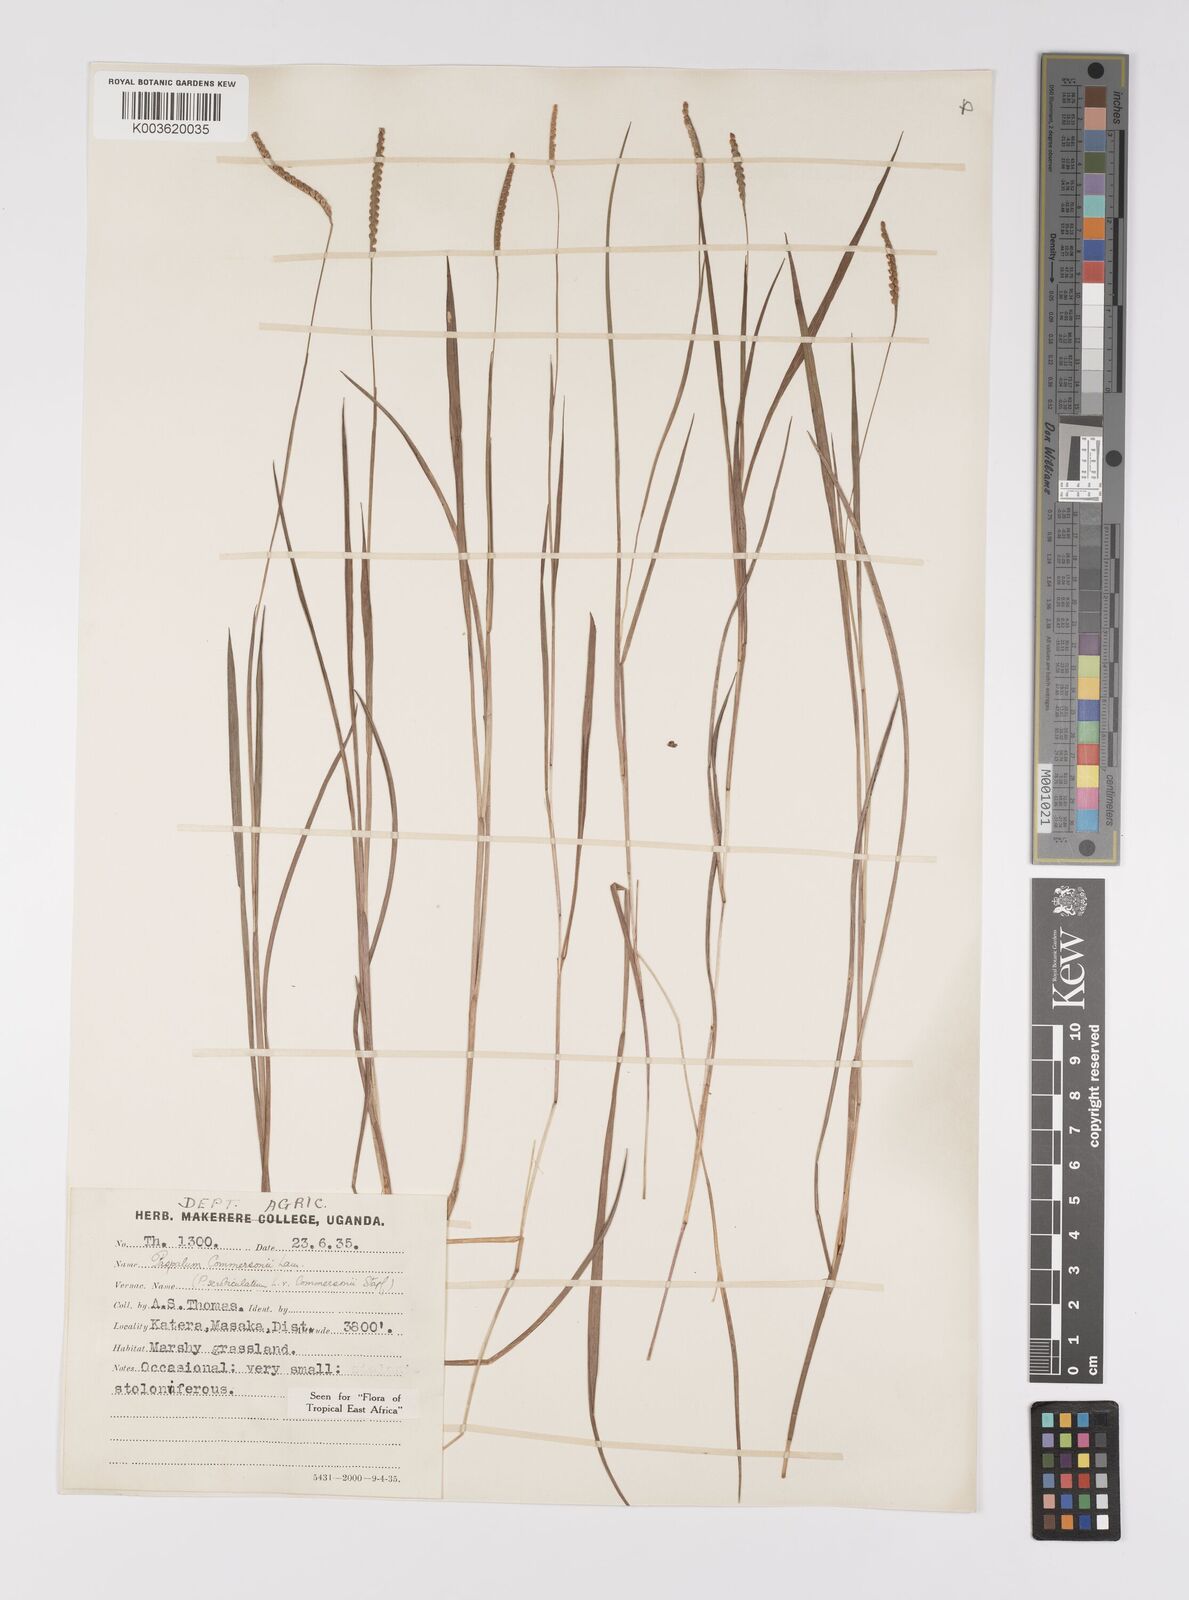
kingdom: Plantae
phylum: Tracheophyta
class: Liliopsida
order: Poales
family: Poaceae
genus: Paspalum
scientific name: Paspalum scrobiculatum
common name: Kodo millet
